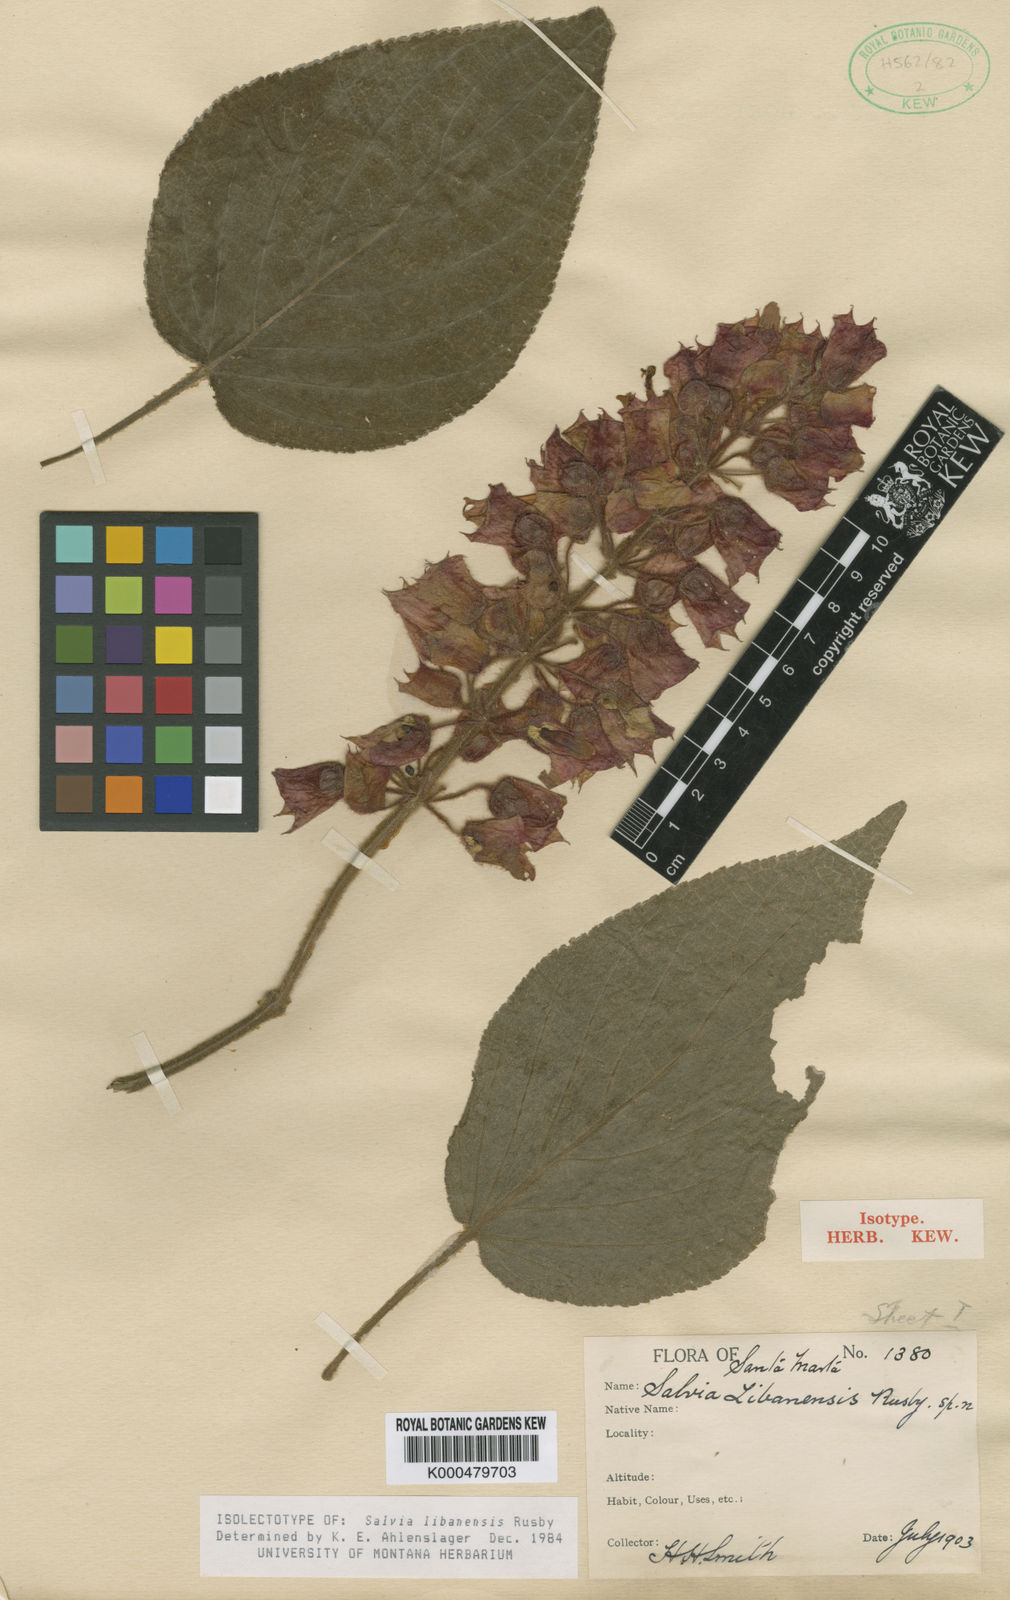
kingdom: Plantae
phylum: Tracheophyta
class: Magnoliopsida
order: Lamiales
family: Lamiaceae
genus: Salvia
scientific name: Salvia libanensis
